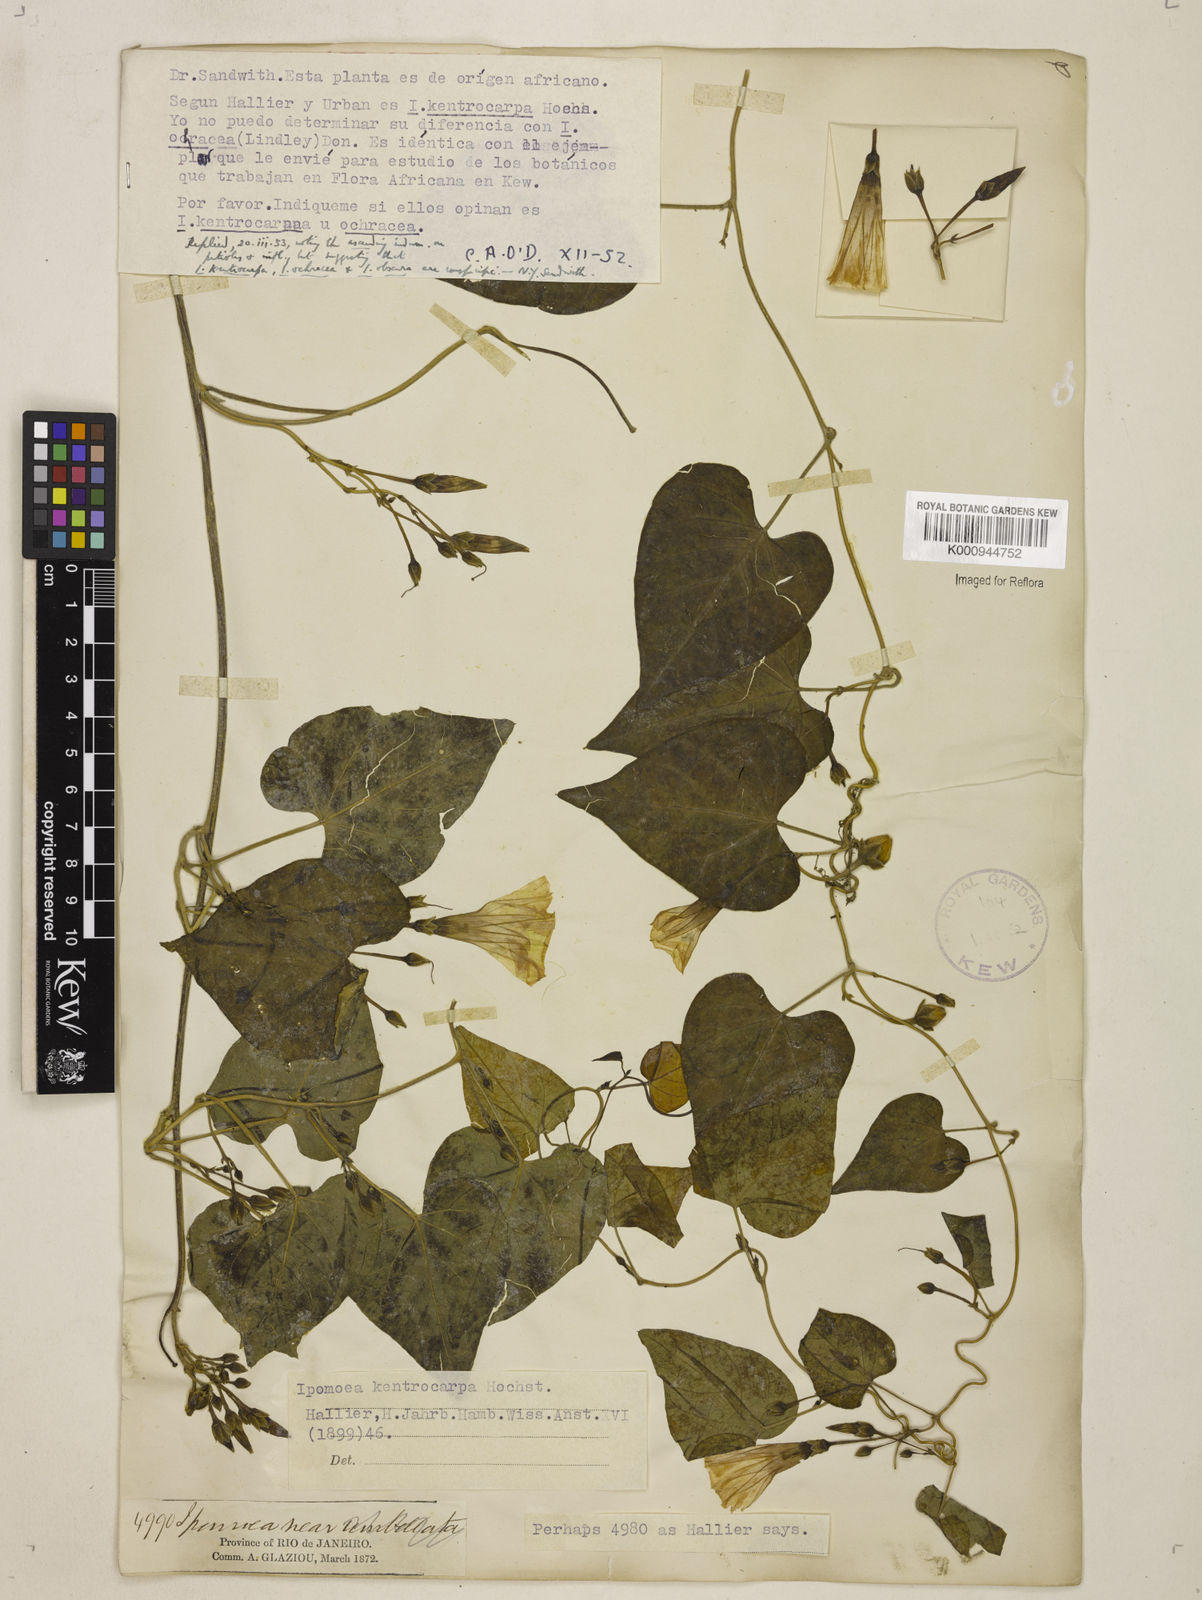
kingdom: Plantae
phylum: Tracheophyta
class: Magnoliopsida
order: Solanales
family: Convolvulaceae
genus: Ipomoea
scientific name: Ipomoea ochracea
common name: Fence morning-glory
